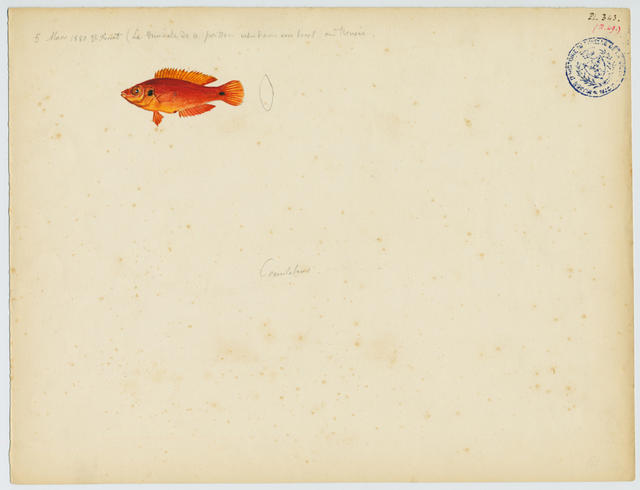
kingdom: Animalia
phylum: Chordata
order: Perciformes
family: Labridae
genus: Symphodus
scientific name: Symphodus ocellatus
